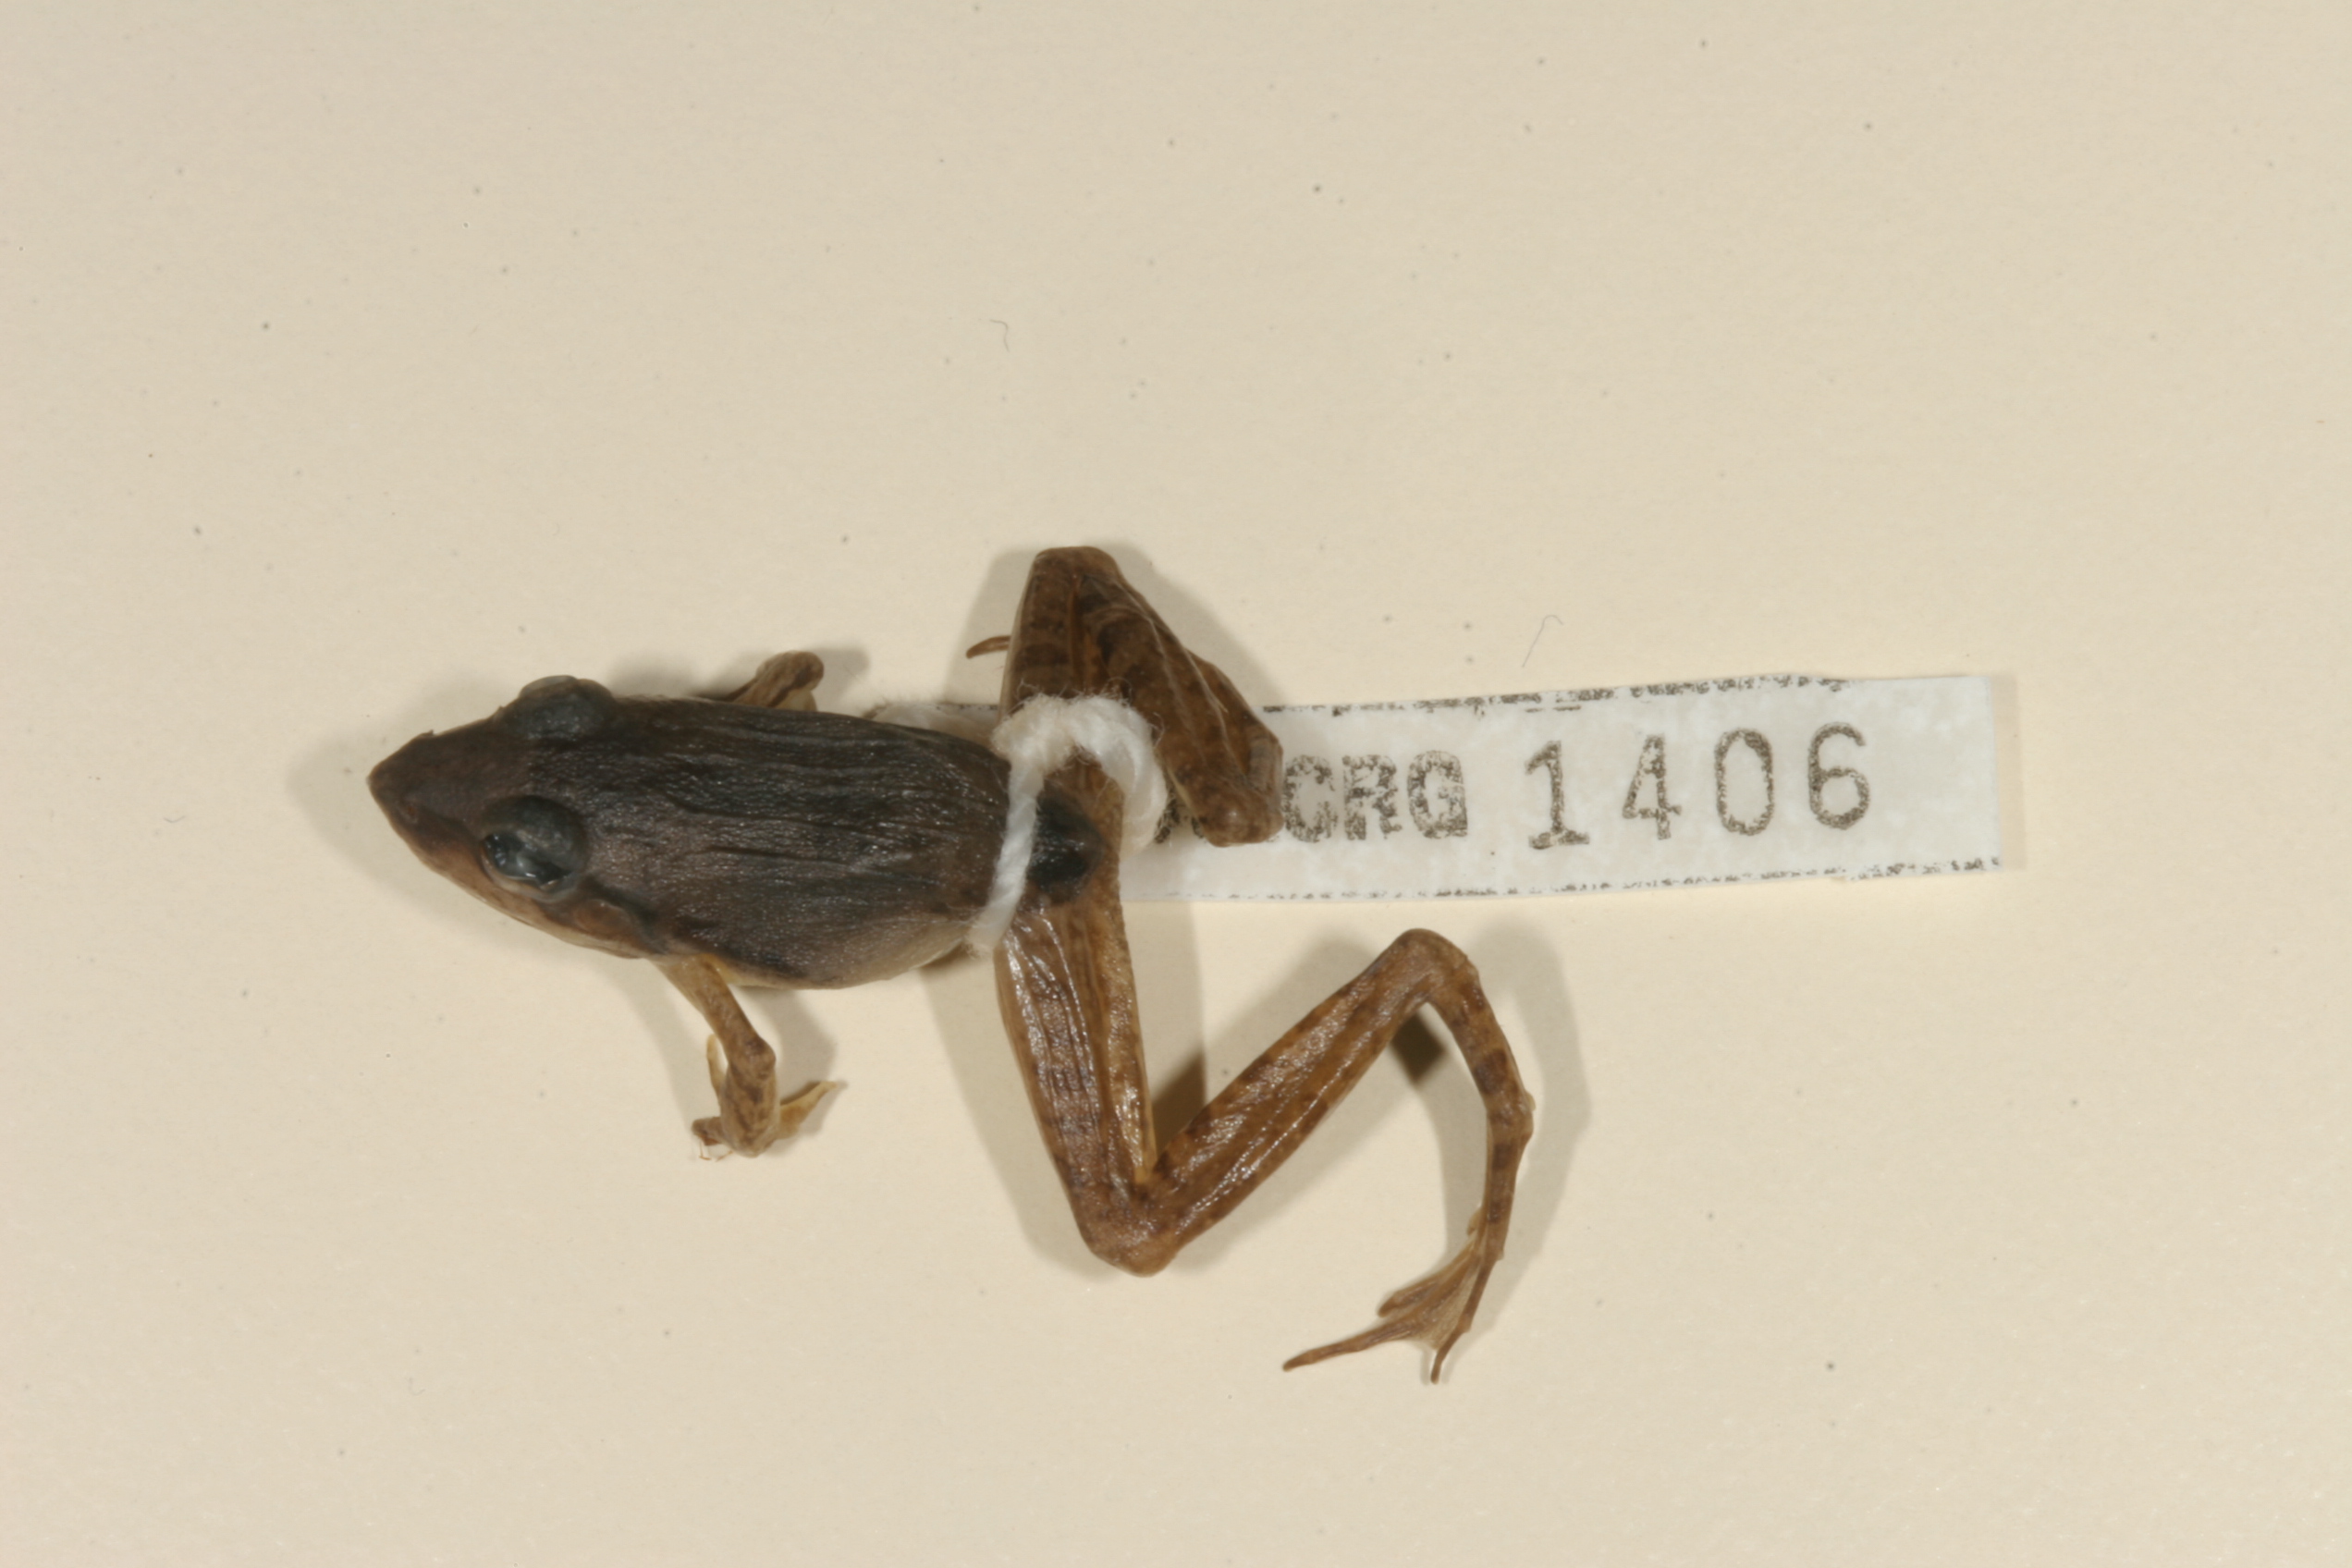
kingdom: Animalia
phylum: Chordata
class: Amphibia
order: Anura
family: Ptychadenidae
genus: Ptychadena
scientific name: Ptychadena anchietae
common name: Anchieta's ridged frog
